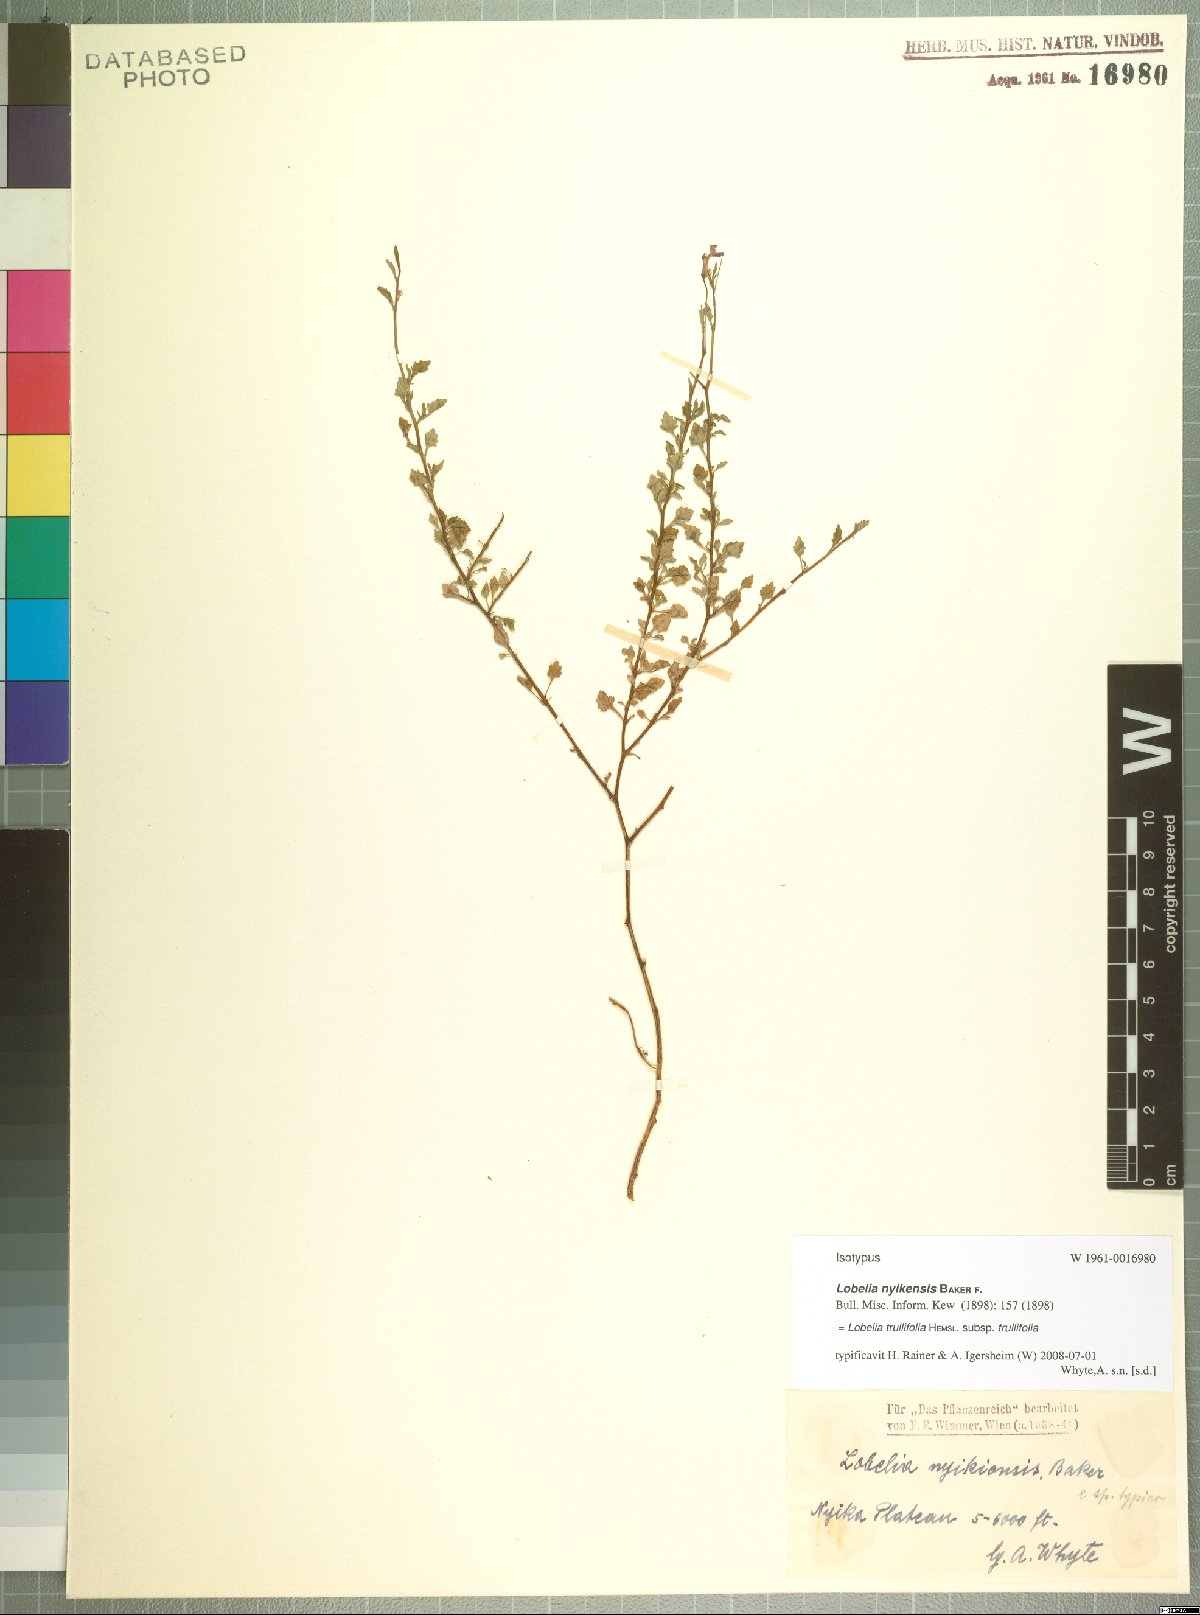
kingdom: Plantae
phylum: Tracheophyta
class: Magnoliopsida
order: Asterales
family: Campanulaceae
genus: Lobelia
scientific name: Lobelia trullifolia
